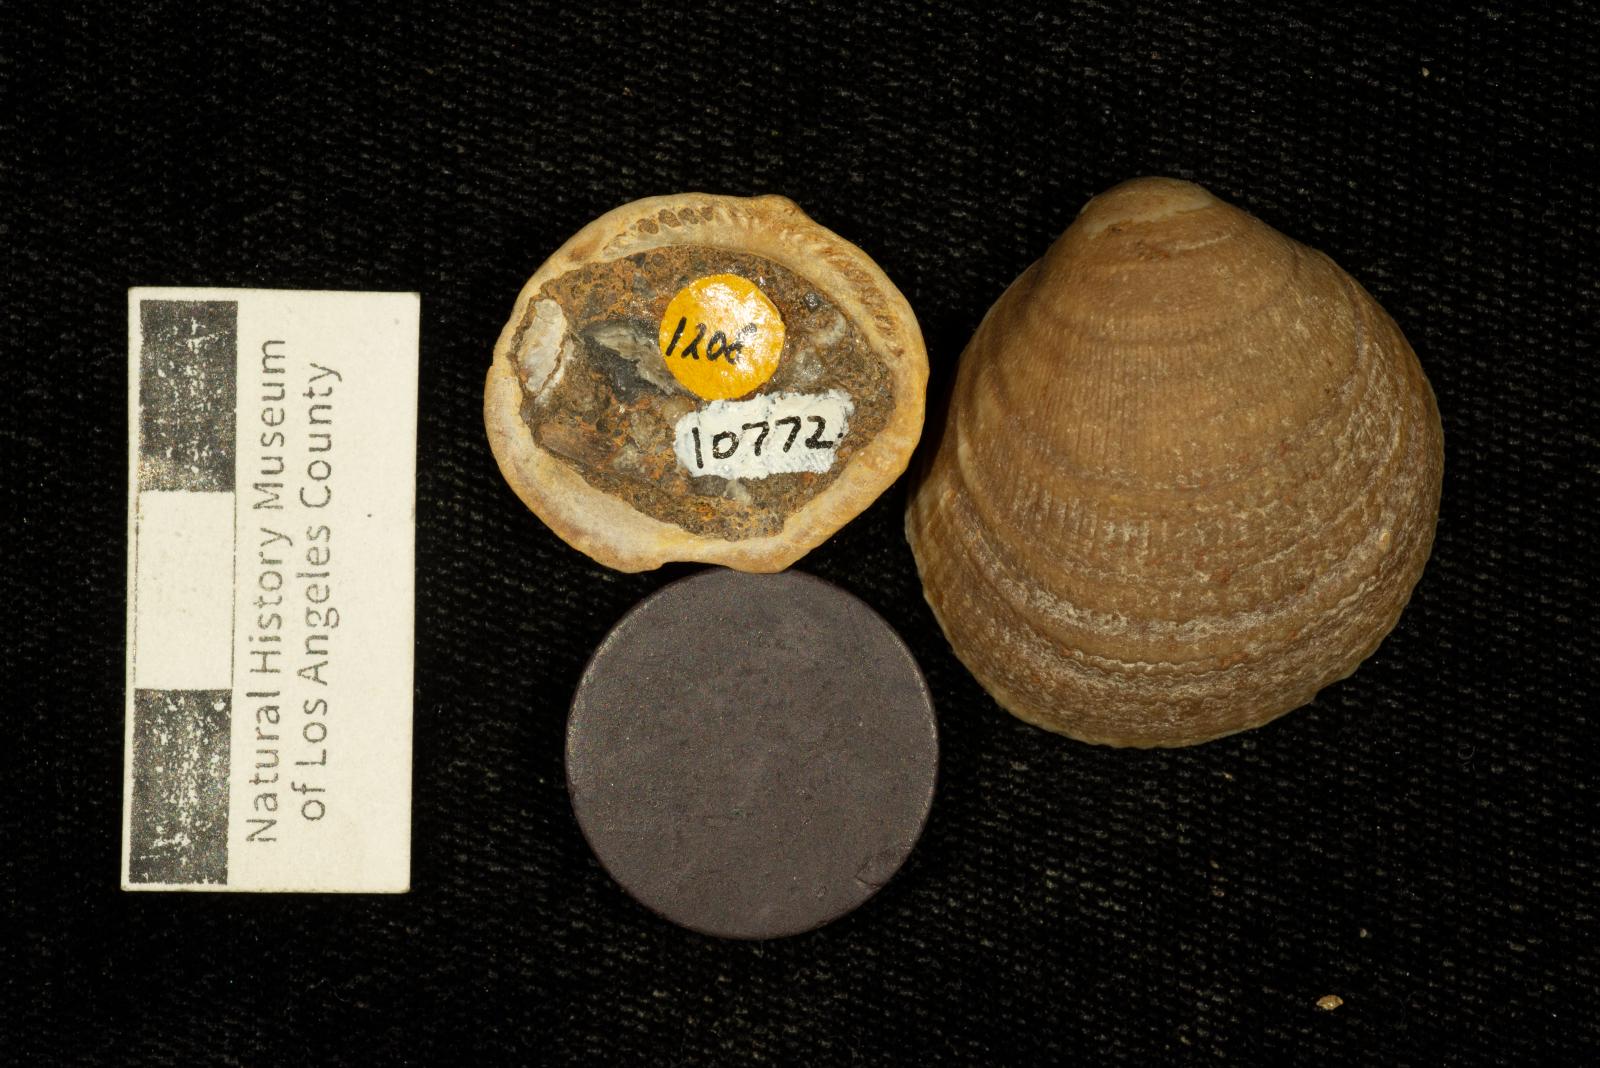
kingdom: Animalia
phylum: Mollusca
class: Bivalvia
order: Arcida
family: Glycymerididae
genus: Glycymeris
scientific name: Glycymeris Pectunculus pacificus
